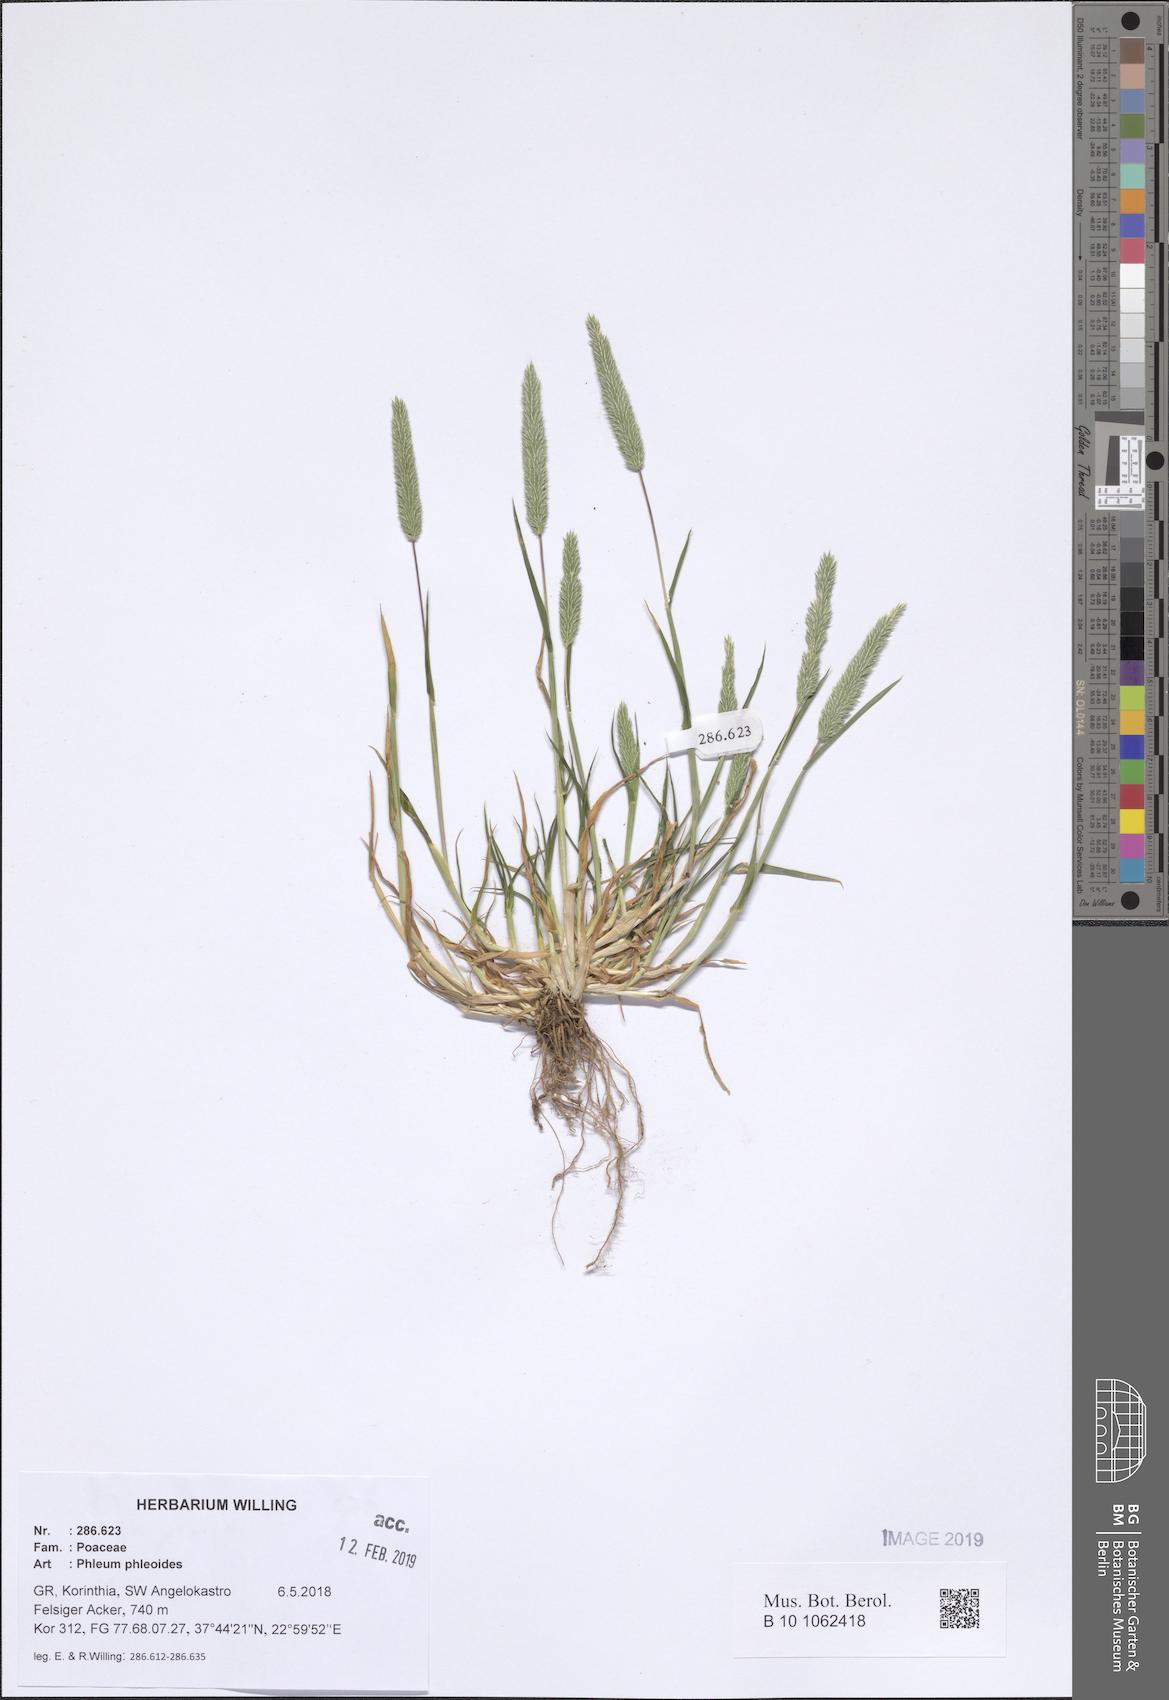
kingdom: Plantae
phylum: Tracheophyta
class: Liliopsida
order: Poales
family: Poaceae
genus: Phleum
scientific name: Phleum phleoides
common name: Purple-stem cat's-tail
